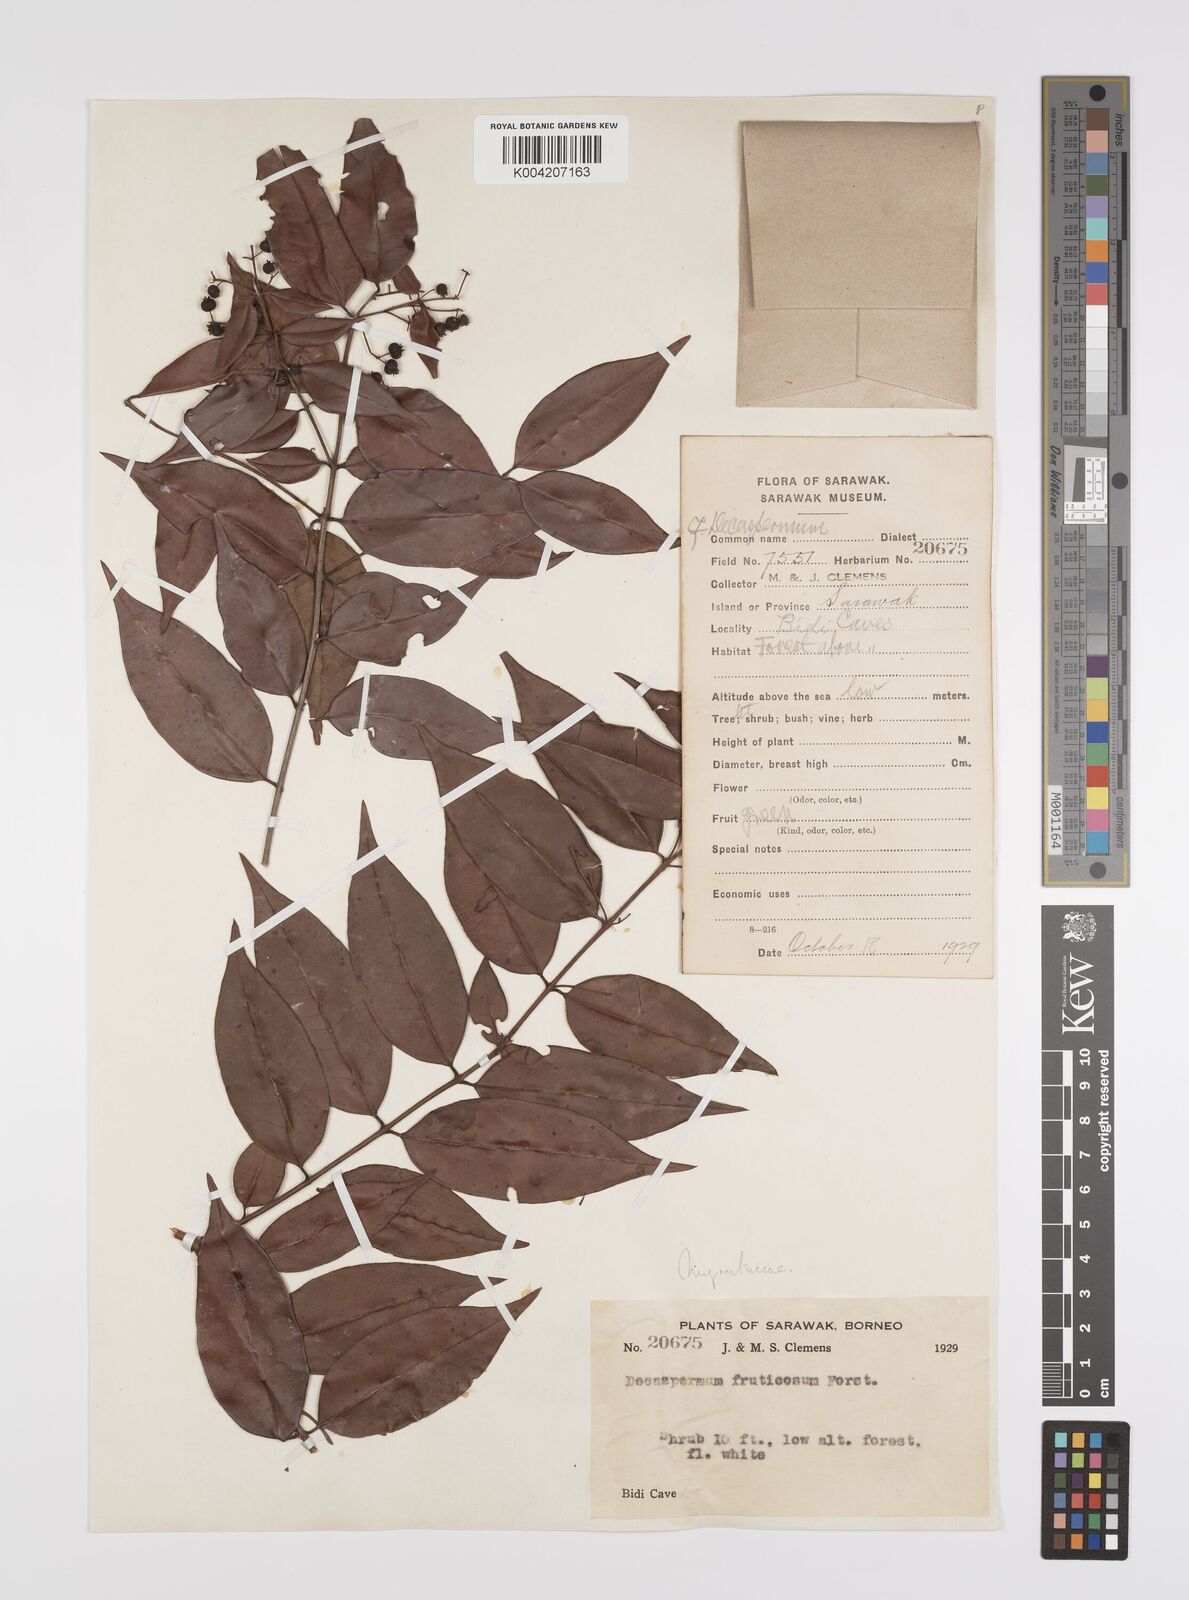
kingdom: Plantae
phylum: Tracheophyta
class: Magnoliopsida
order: Myrtales
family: Myrtaceae
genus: Decaspermum
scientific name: Decaspermum fruticosum
